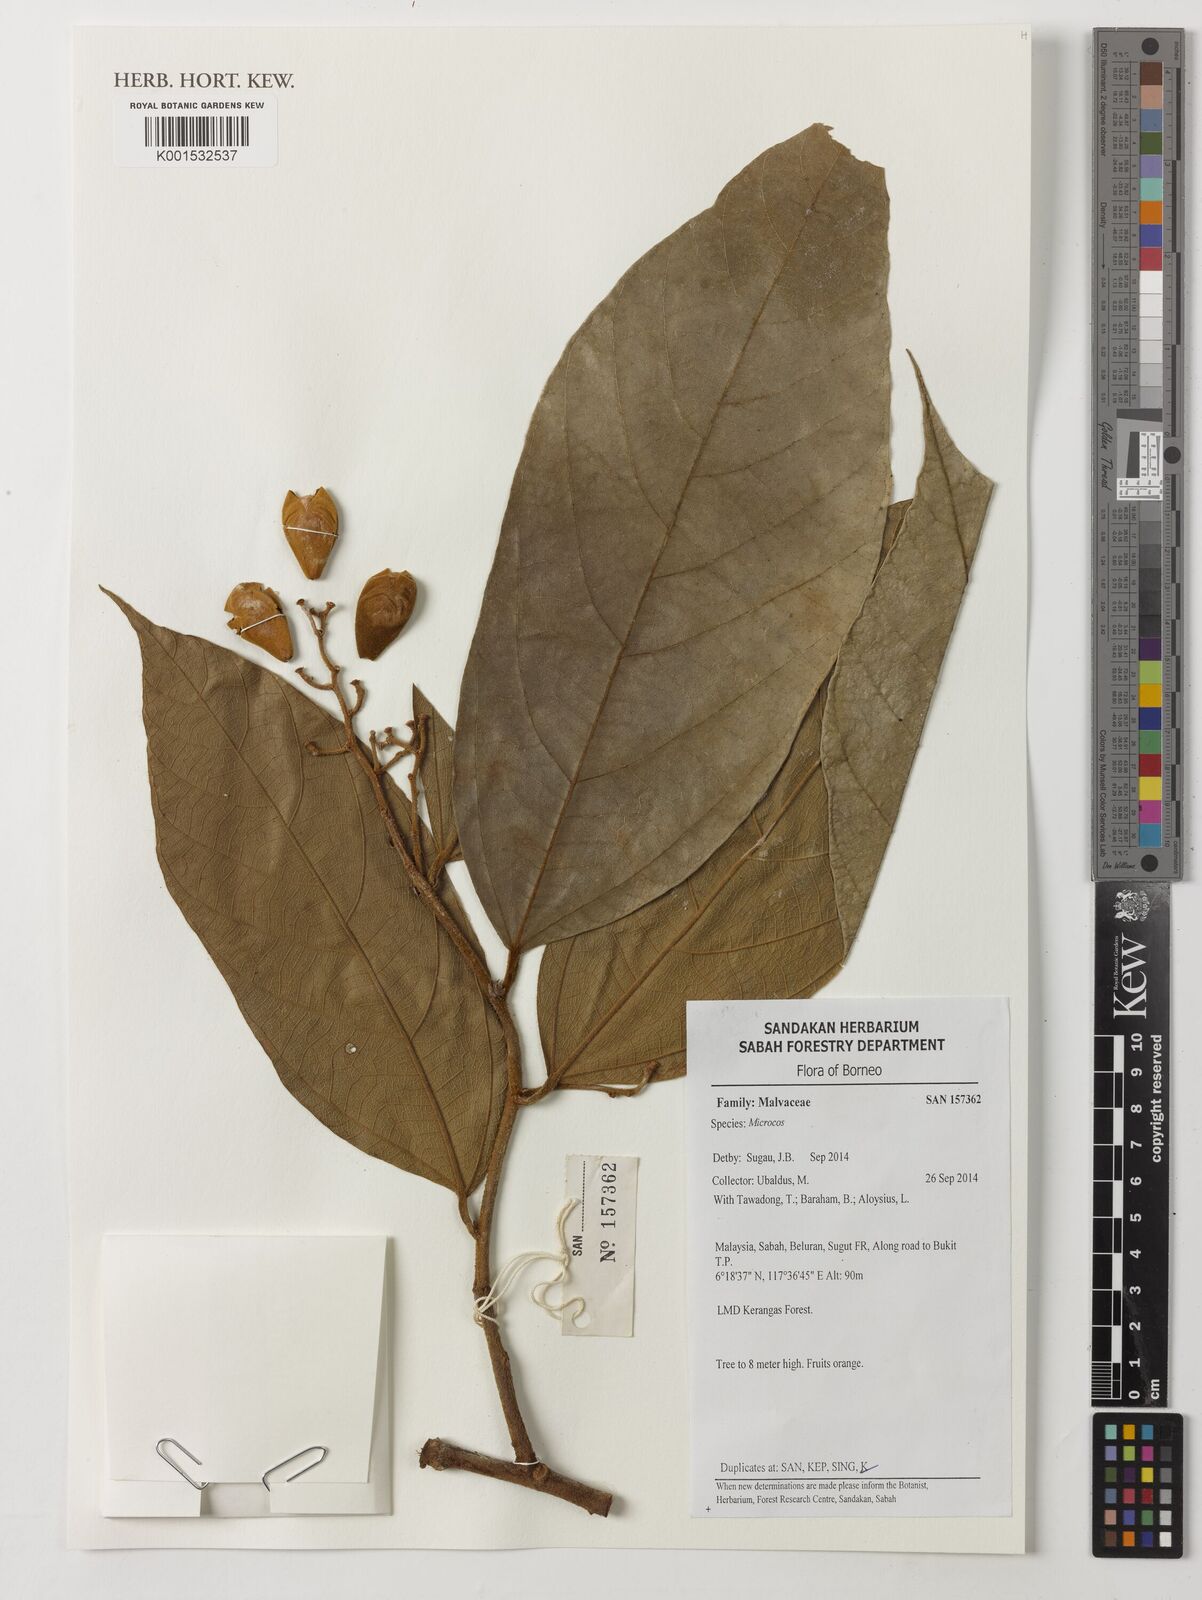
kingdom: Plantae
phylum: Tracheophyta
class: Magnoliopsida
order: Malvales
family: Malvaceae
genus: Microcos
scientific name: Microcos
